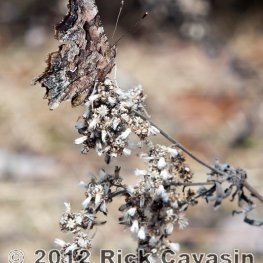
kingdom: Animalia
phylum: Arthropoda
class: Insecta
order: Lepidoptera
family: Nymphalidae
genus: Polygonia
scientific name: Polygonia faunus
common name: Green Comma
